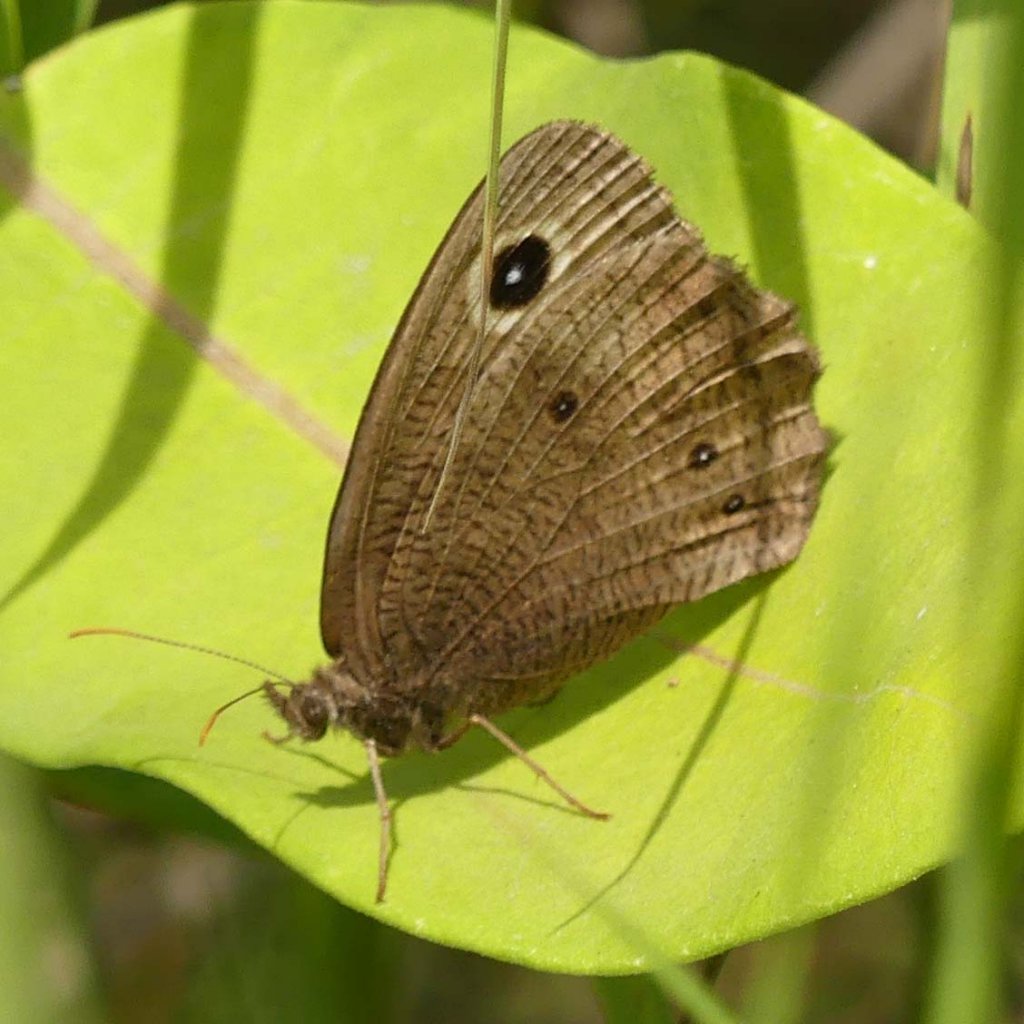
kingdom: Animalia
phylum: Arthropoda
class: Insecta
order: Lepidoptera
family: Nymphalidae
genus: Cercyonis
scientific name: Cercyonis pegala
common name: Common Wood-Nymph
